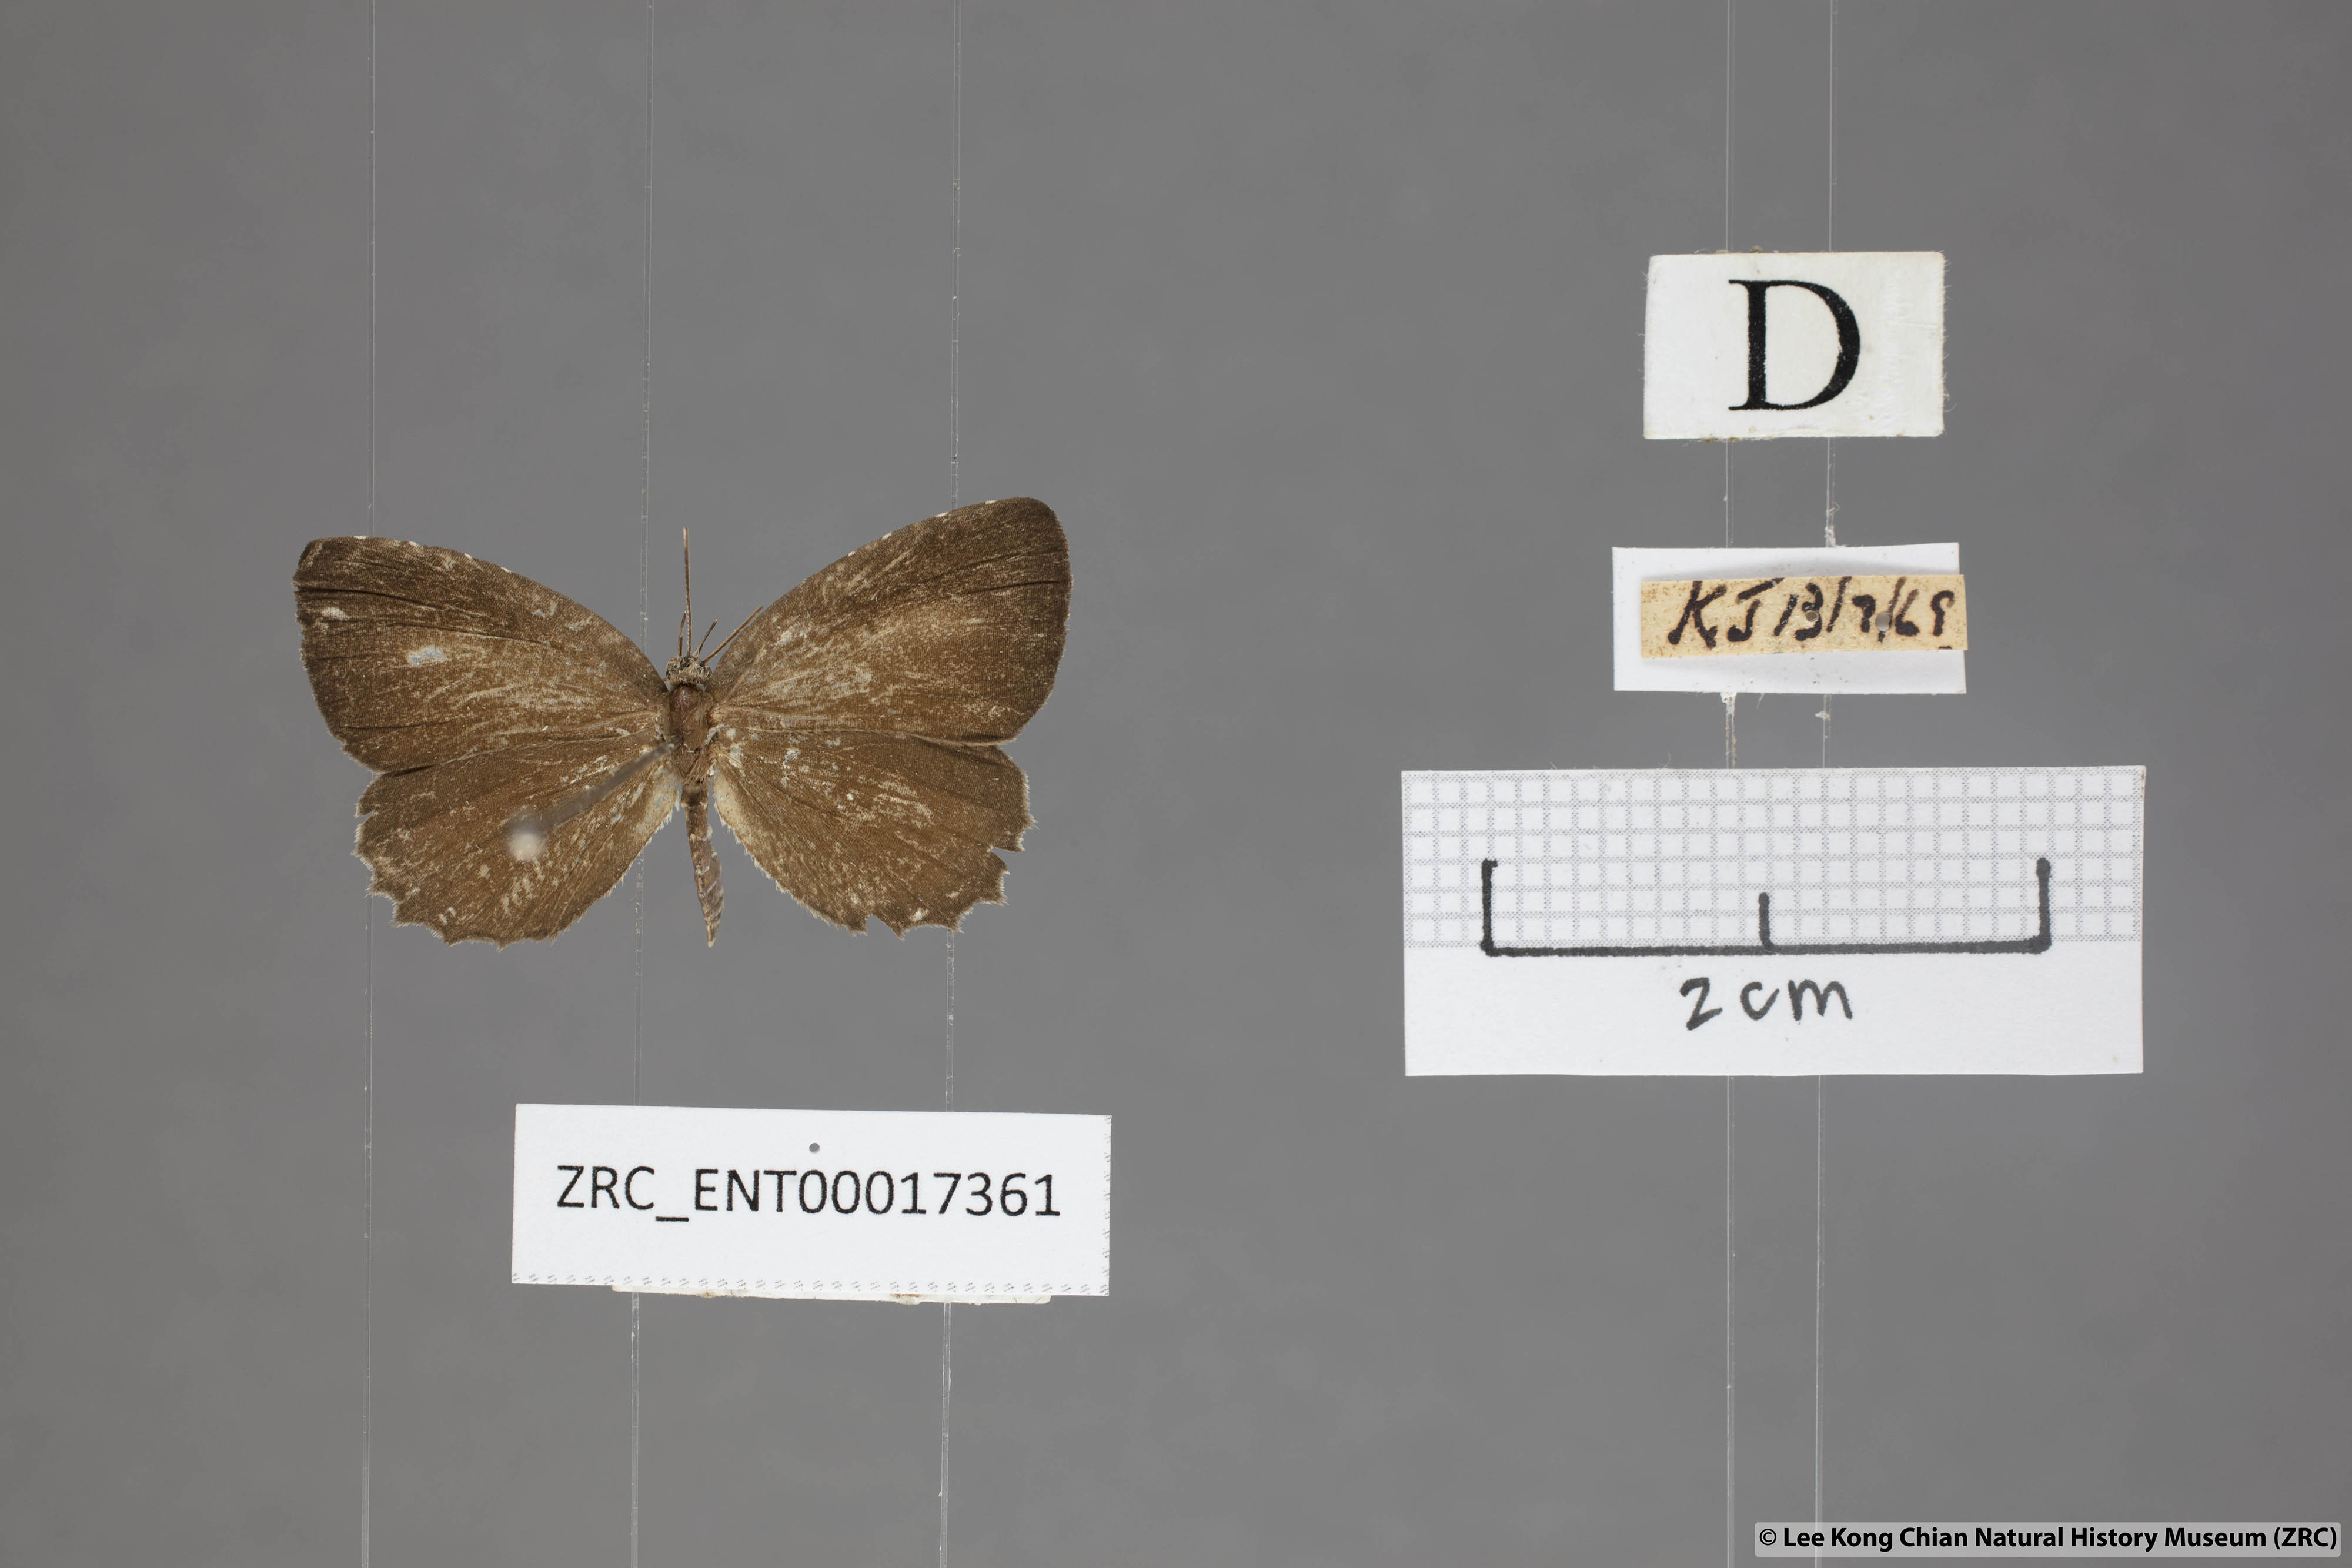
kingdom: Animalia
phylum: Arthropoda
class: Insecta
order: Lepidoptera
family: Lycaenidae
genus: Allotinus
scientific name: Allotinus unicolor
